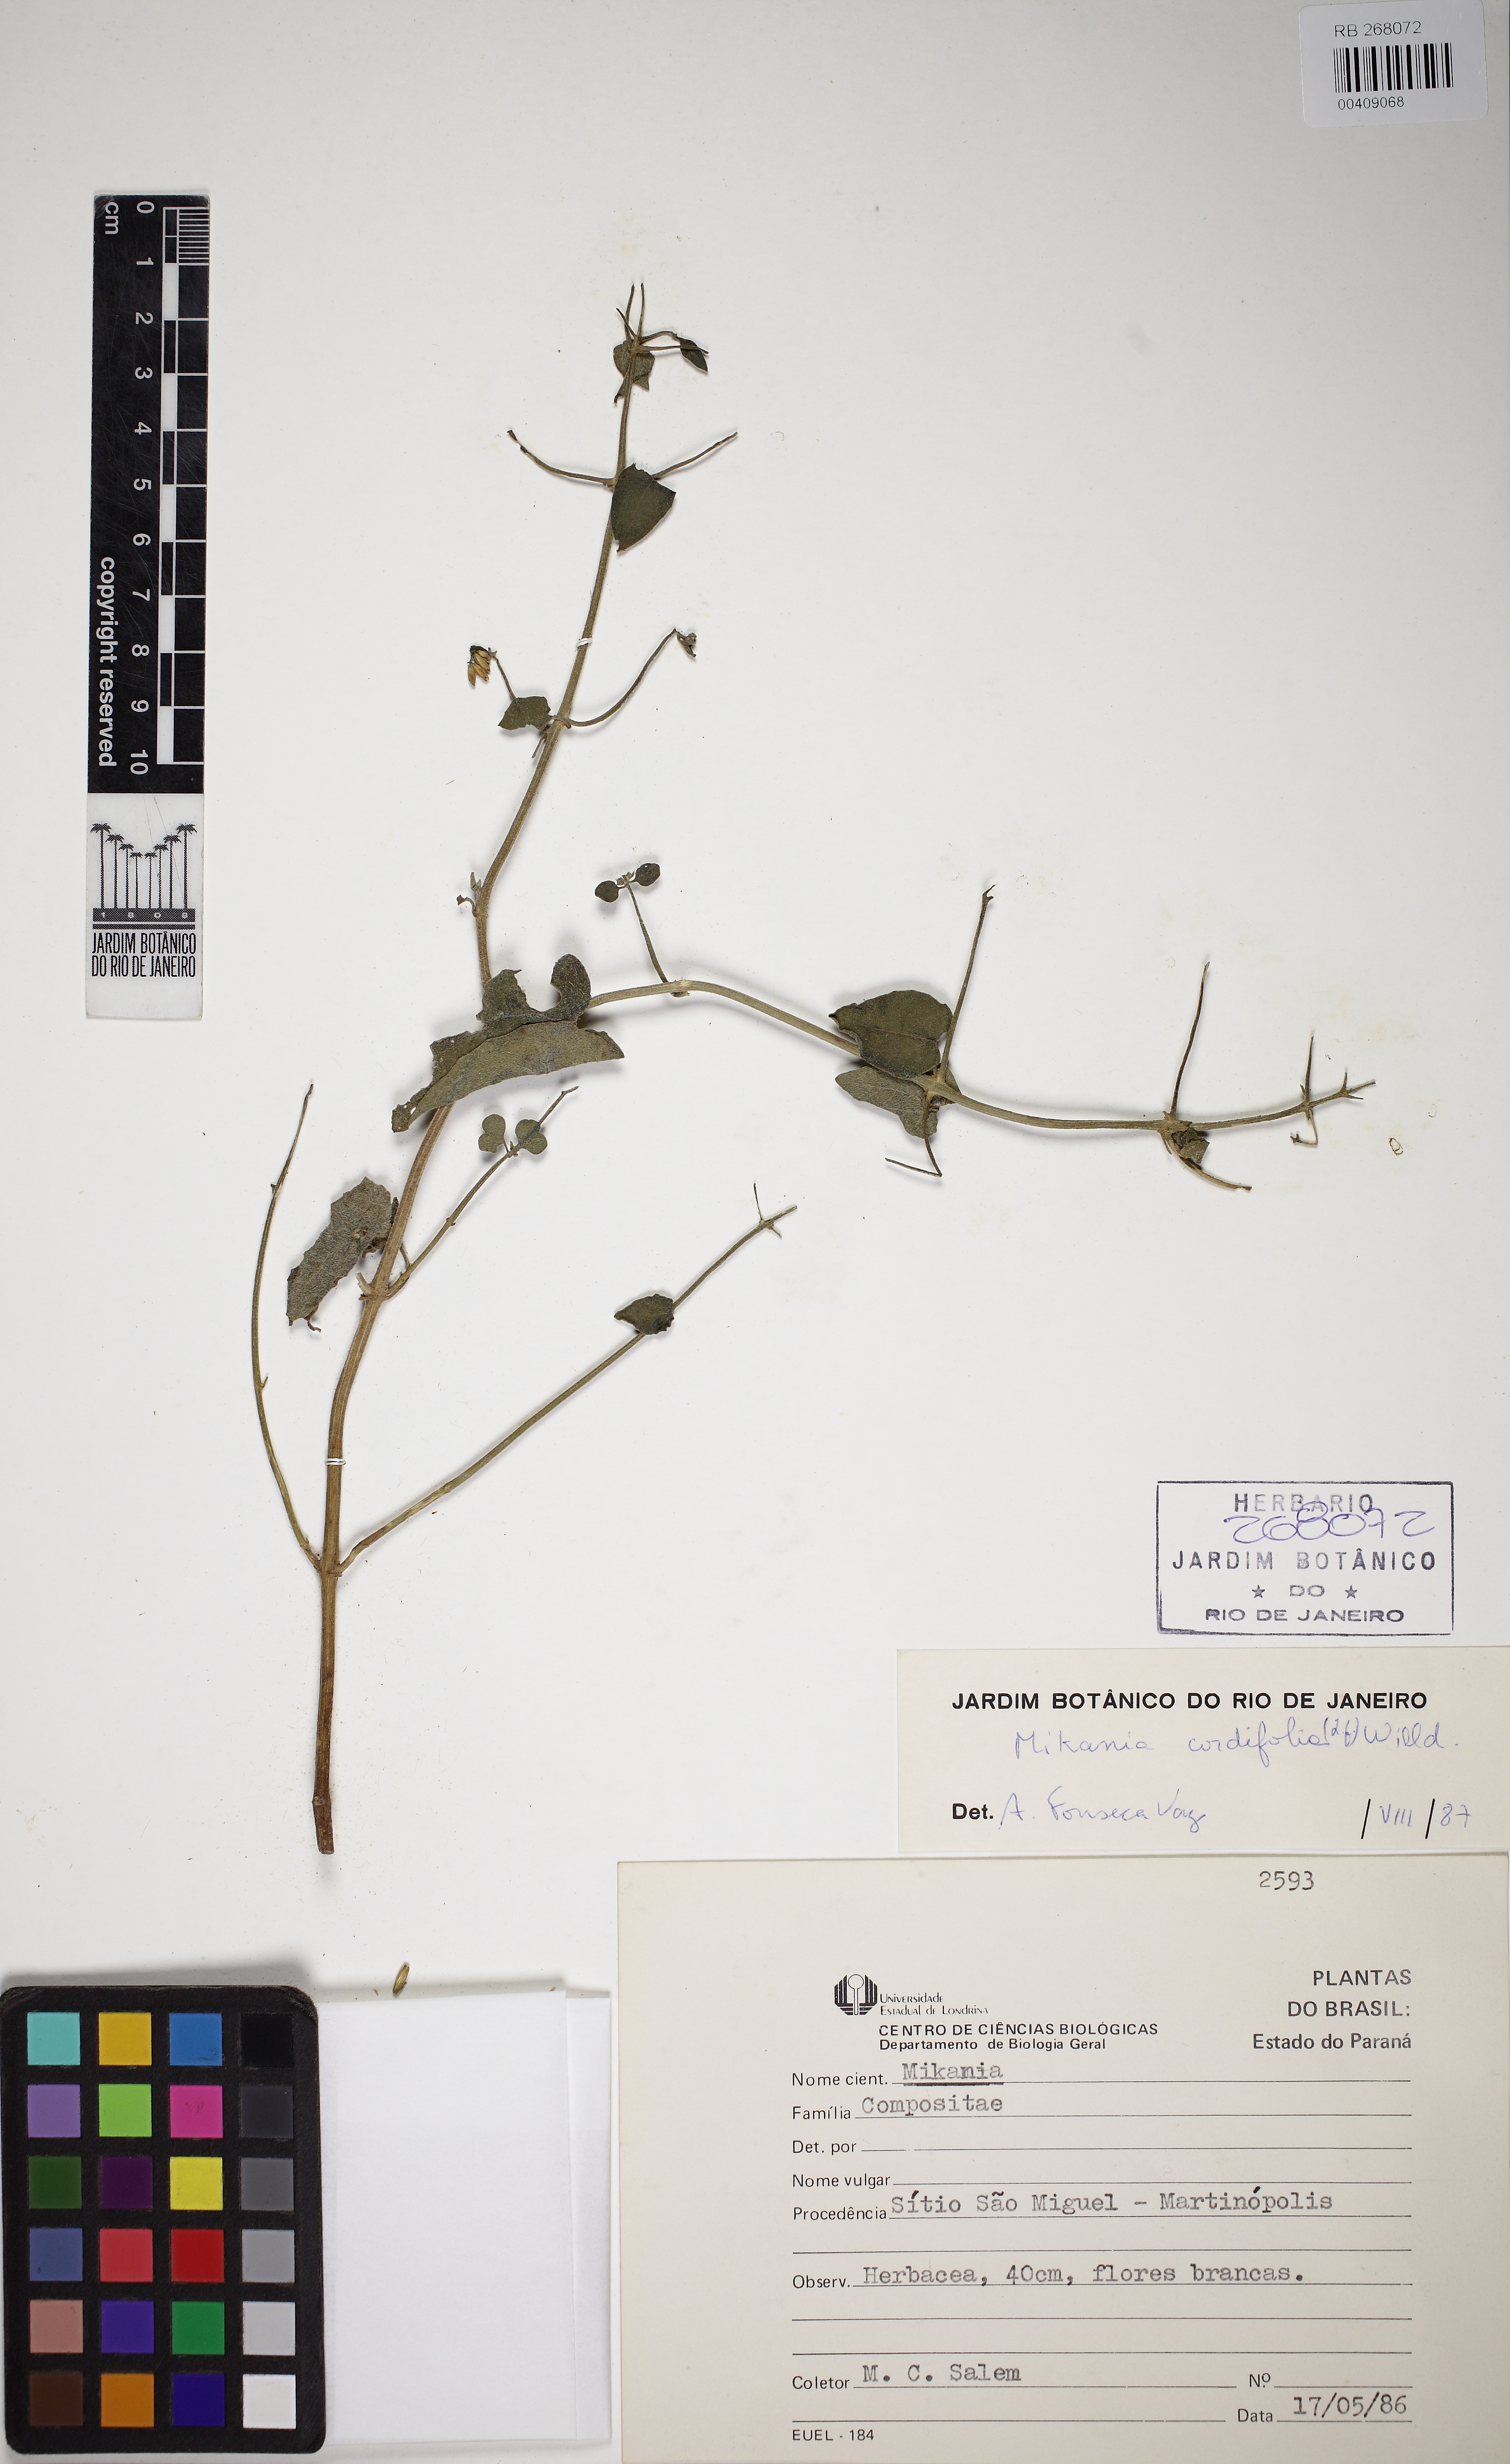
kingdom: Plantae
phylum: Tracheophyta
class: Magnoliopsida
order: Asterales
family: Asteraceae
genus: Mikania
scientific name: Mikania cordifolia
